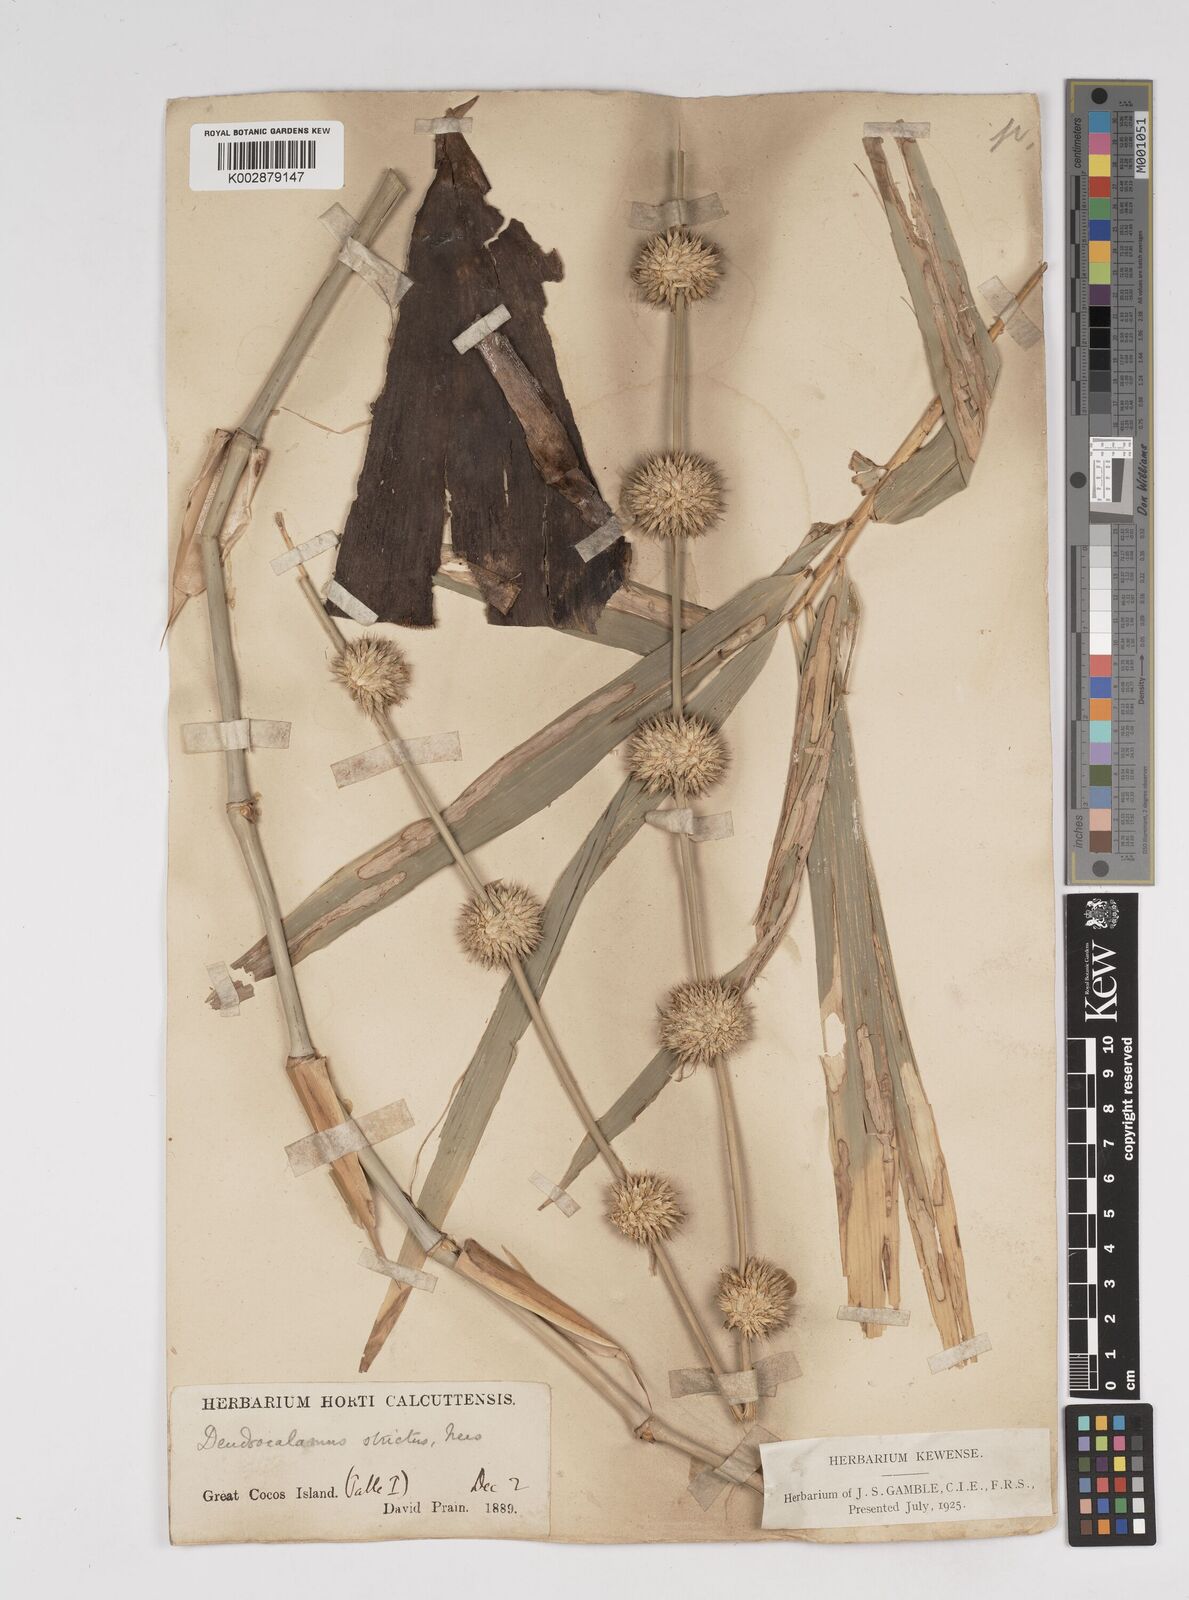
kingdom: Plantae
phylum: Tracheophyta
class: Liliopsida
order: Poales
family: Poaceae
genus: Dendrocalamus
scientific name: Dendrocalamus strictus
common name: Male bamboo
